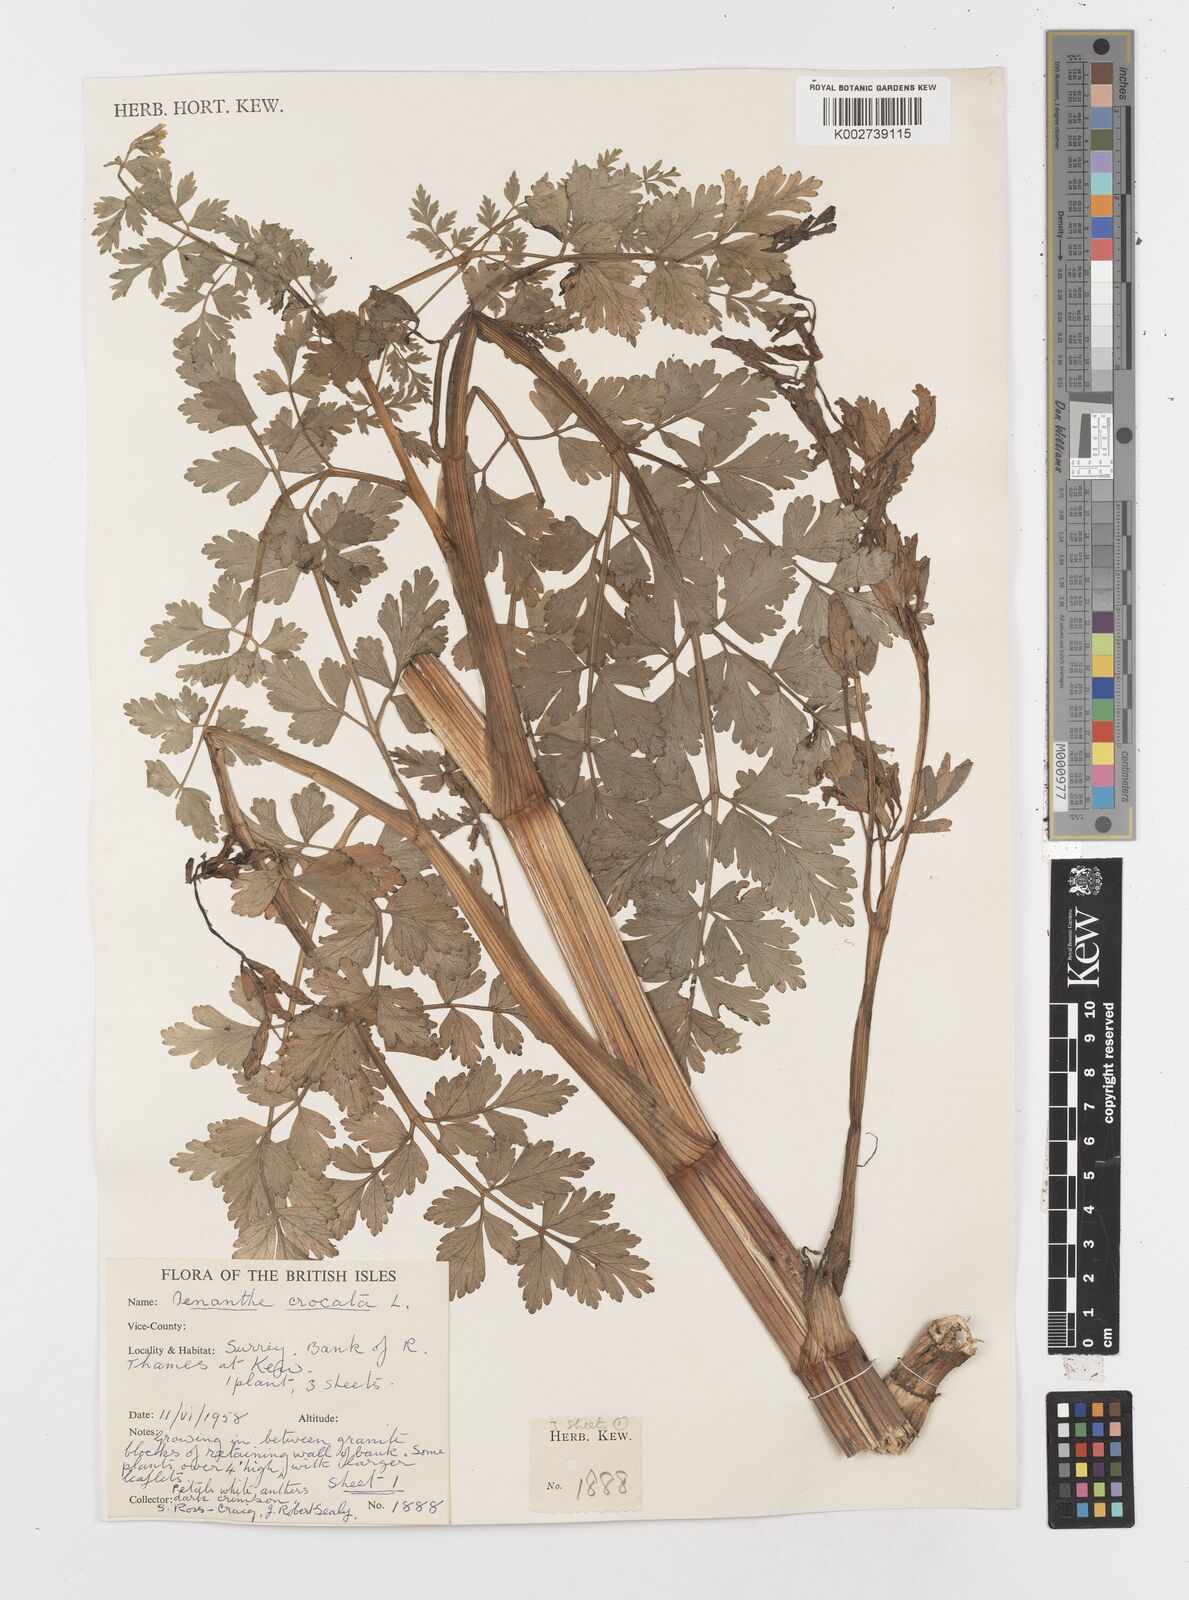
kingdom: Plantae
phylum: Tracheophyta
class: Magnoliopsida
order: Apiales
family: Apiaceae
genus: Oenanthe
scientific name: Oenanthe crocata
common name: Hemlock water-dropwort
